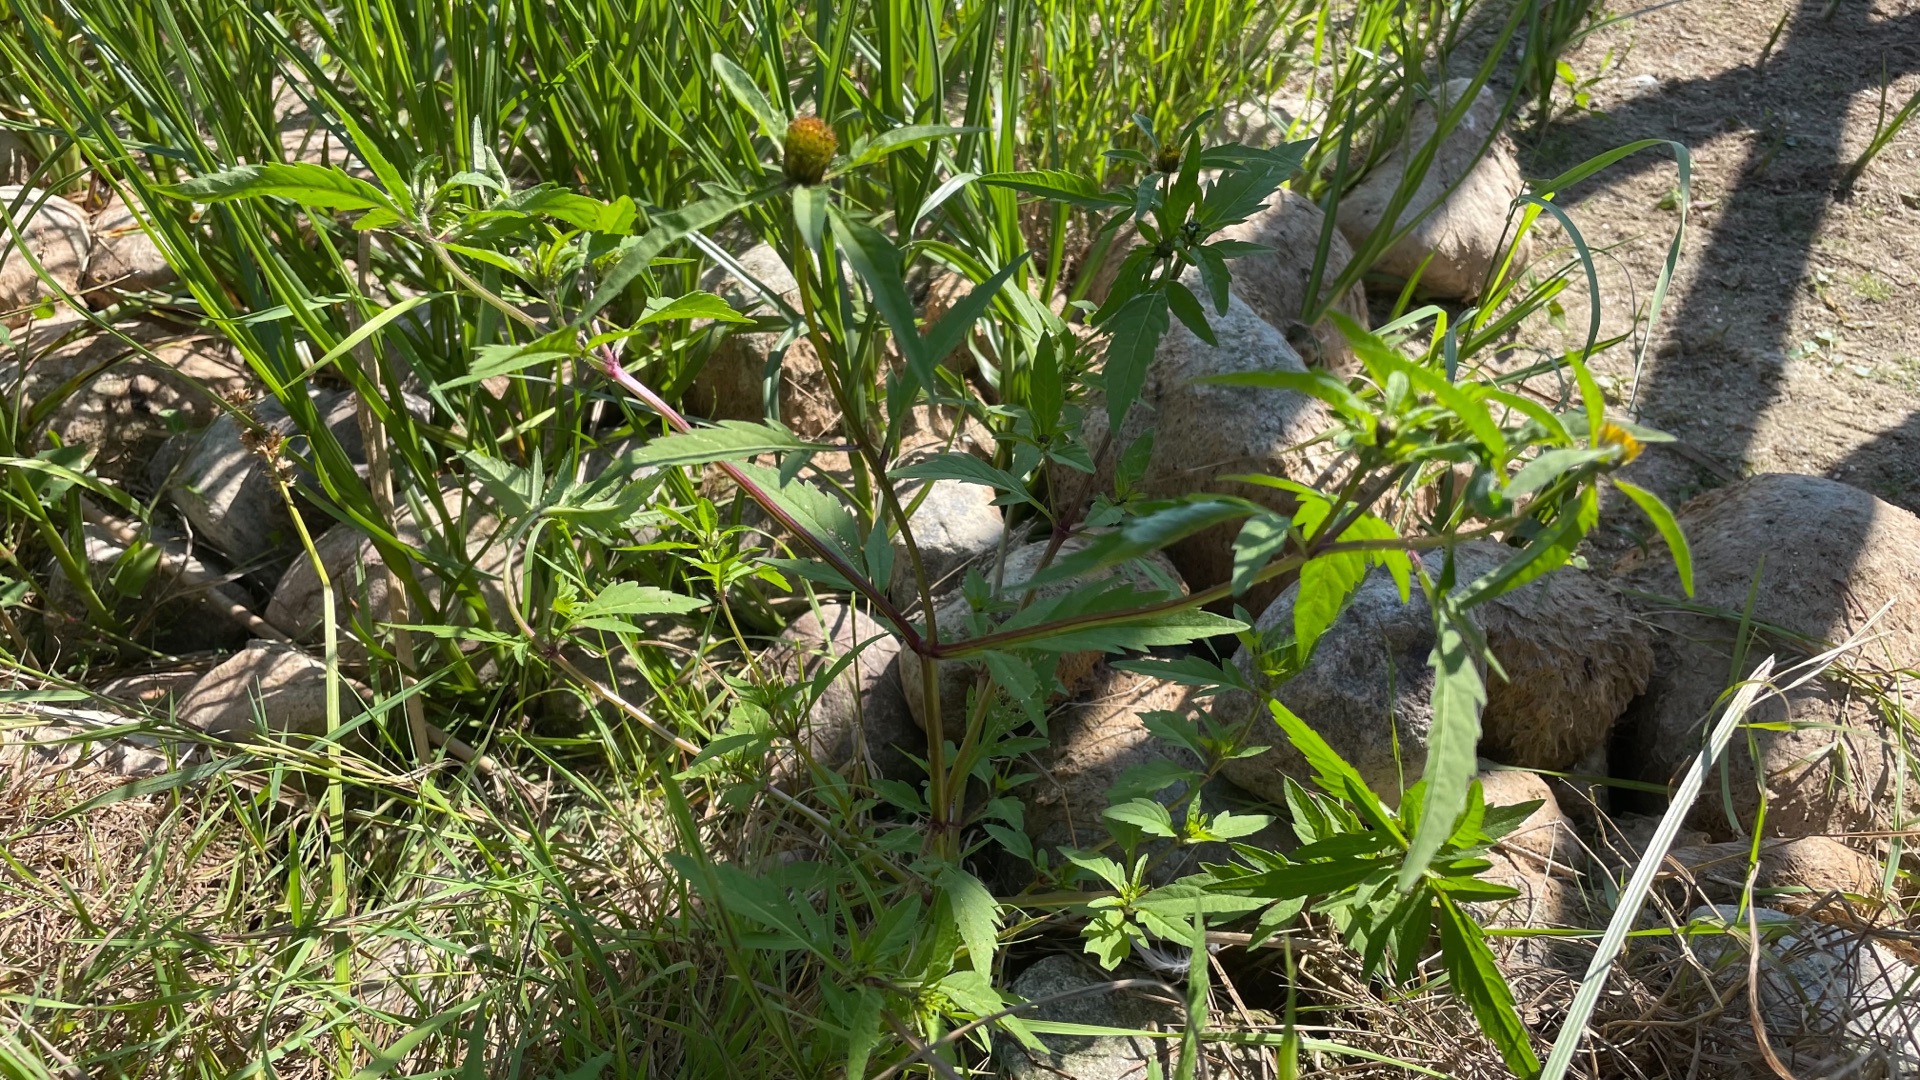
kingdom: Plantae
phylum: Tracheophyta
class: Magnoliopsida
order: Asterales
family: Asteraceae
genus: Bidens
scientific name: Bidens tripartita
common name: Fliget brøndsel
